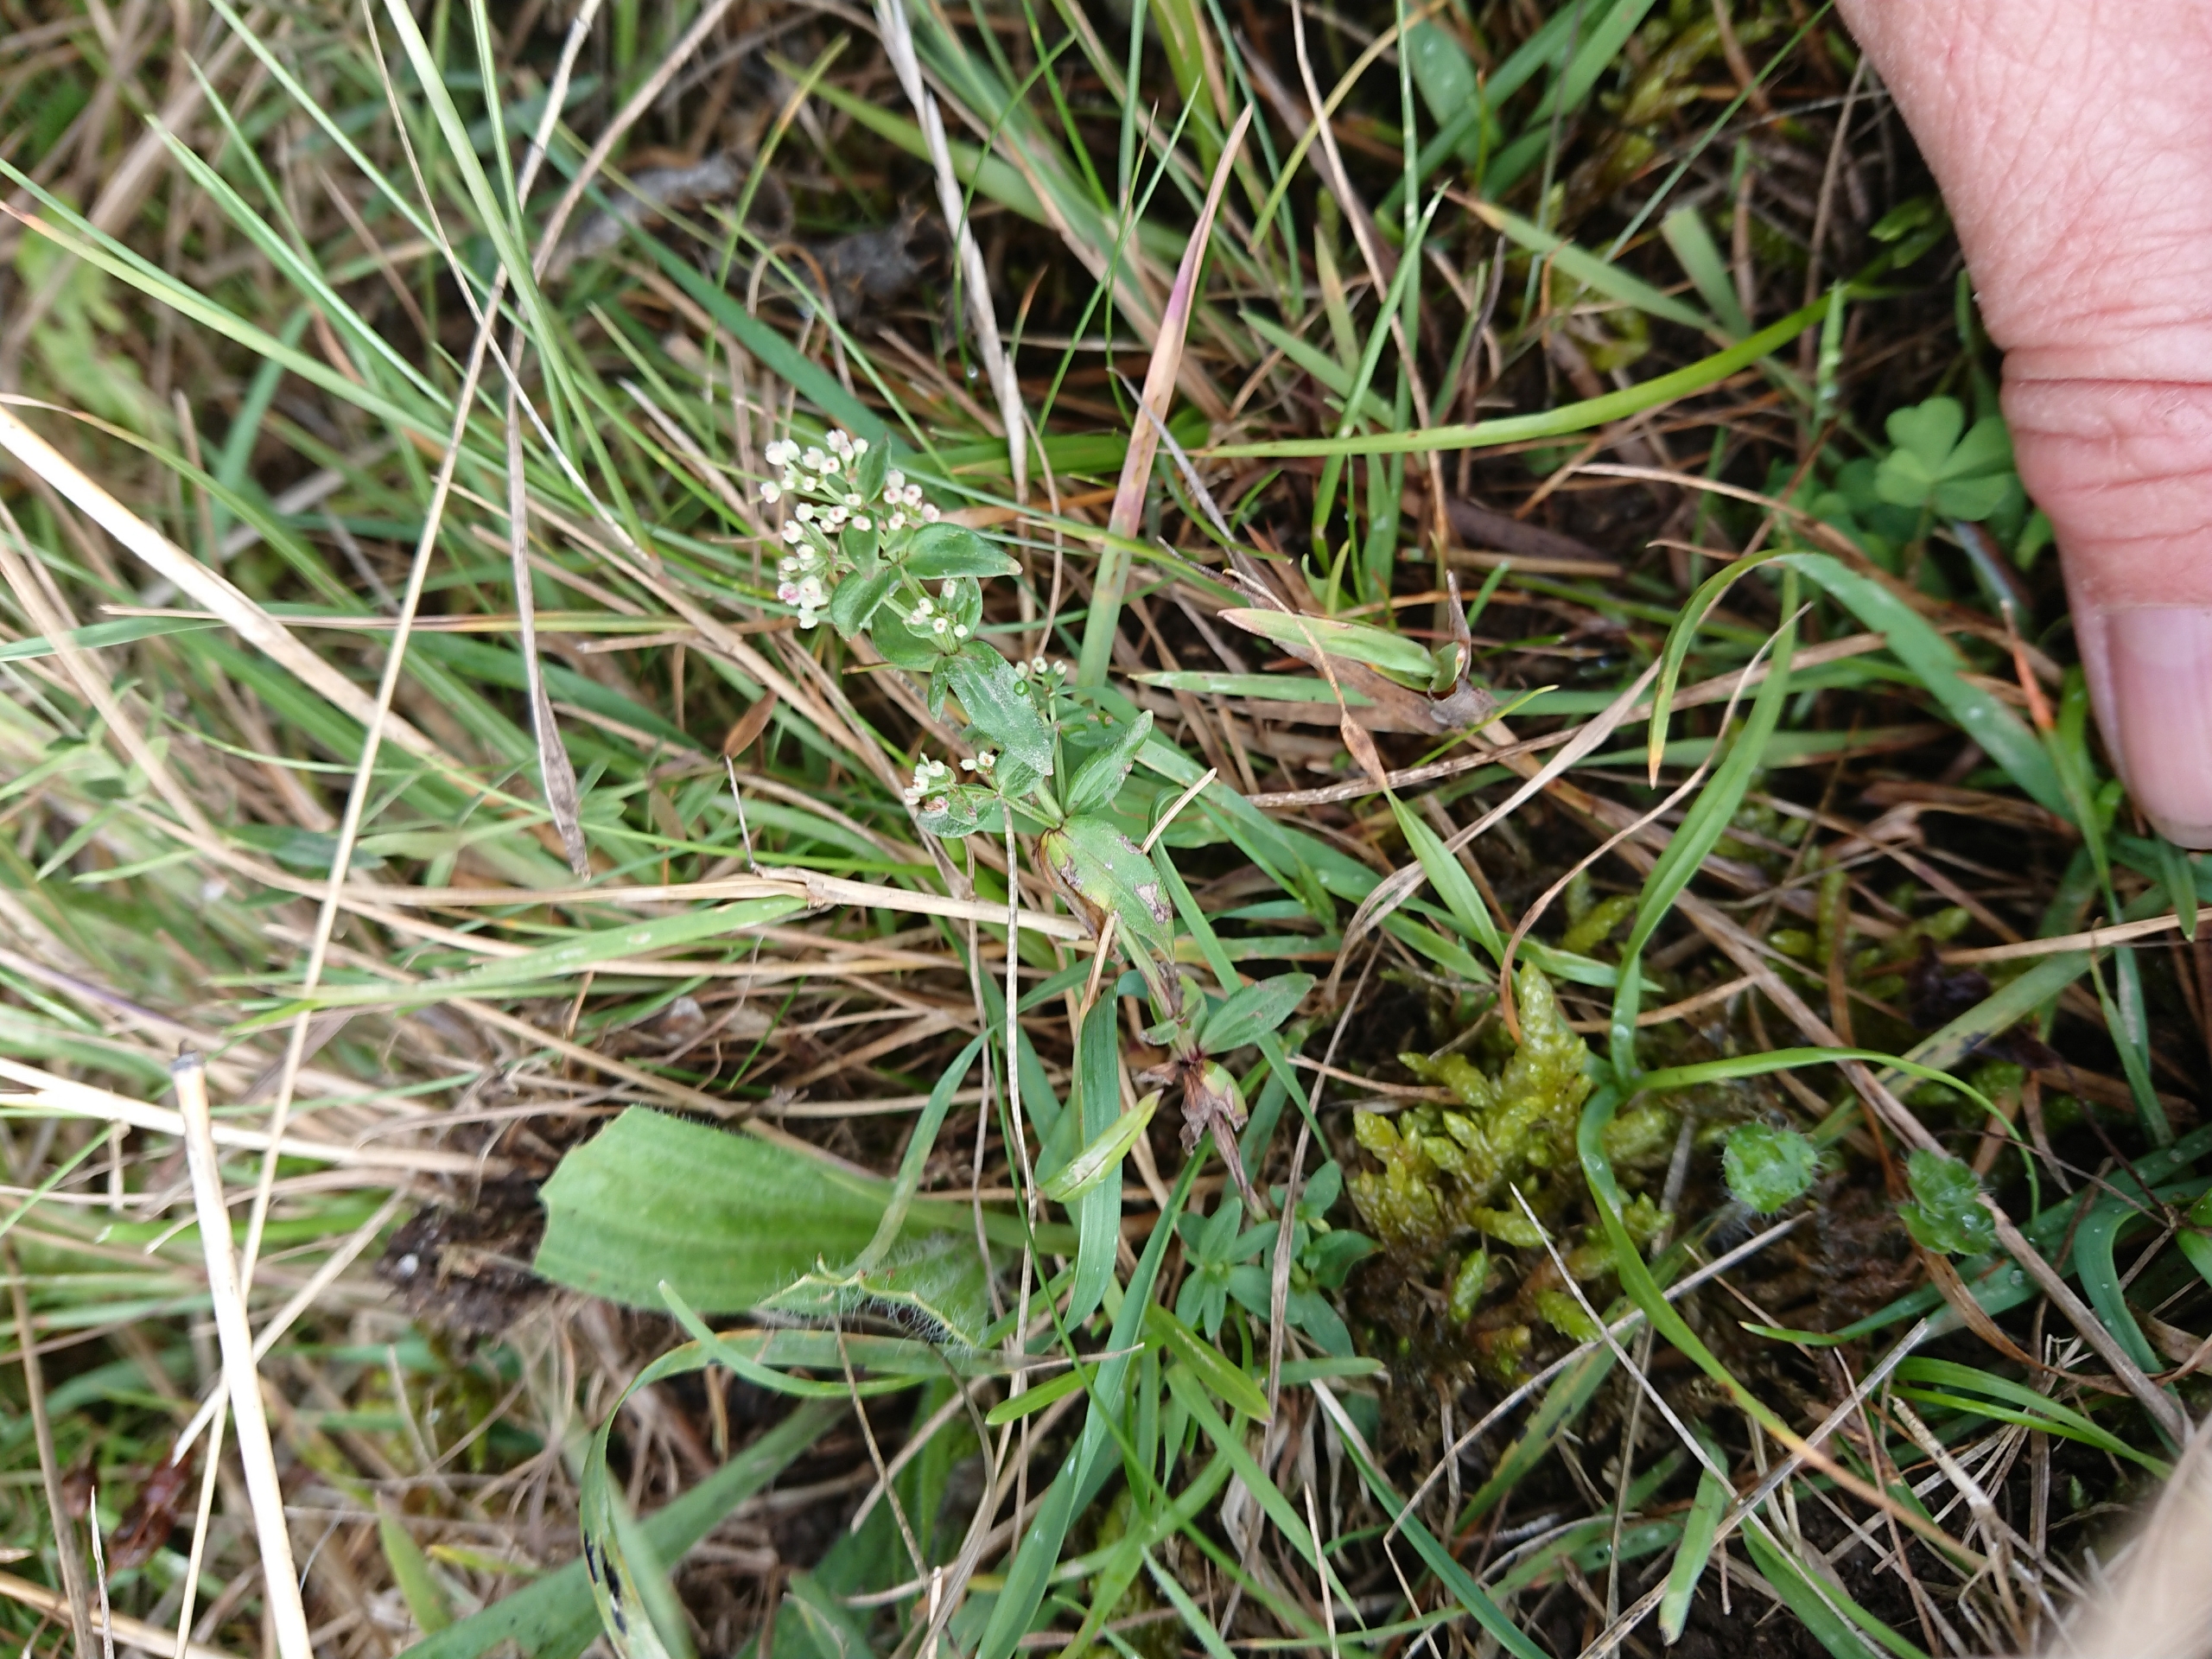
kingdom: Plantae
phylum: Tracheophyta
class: Magnoliopsida
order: Gentianales
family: Rubiaceae
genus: Galium
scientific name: Galium boreale
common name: Trenervet snerre
